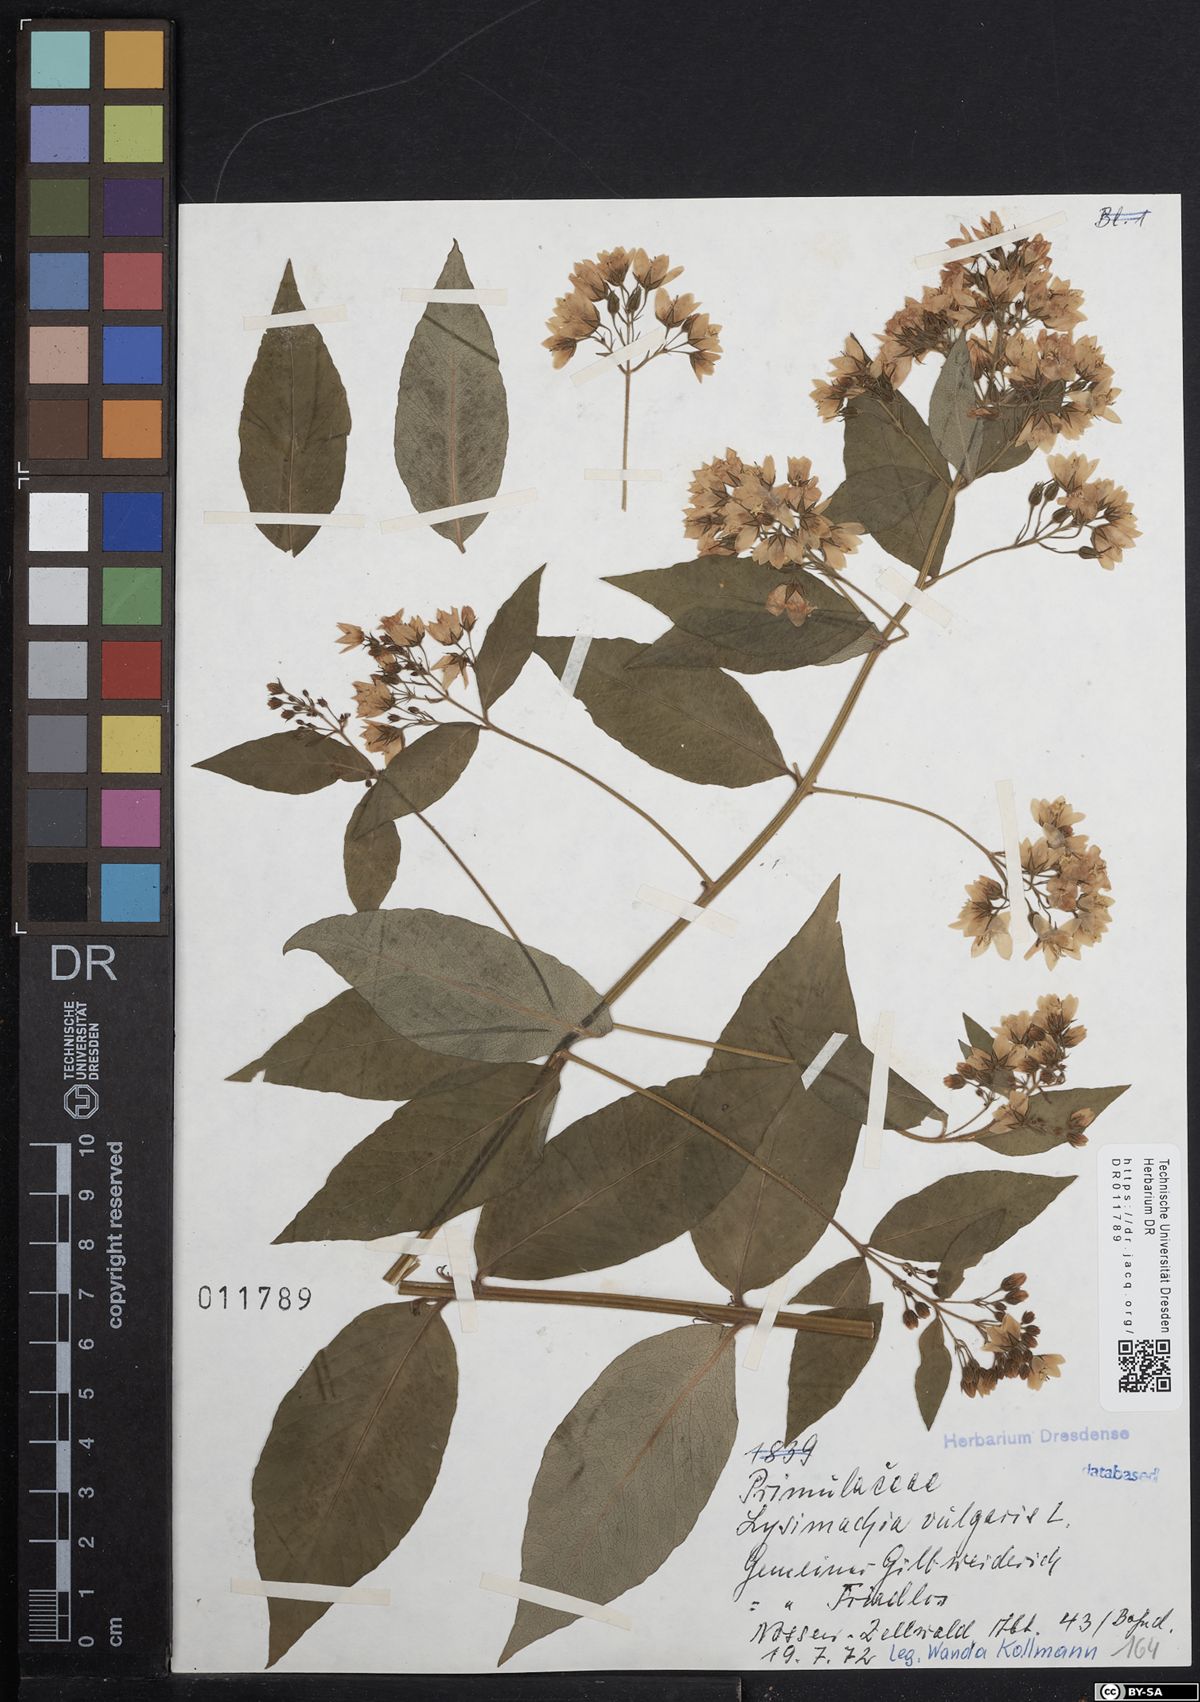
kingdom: Plantae
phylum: Tracheophyta
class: Magnoliopsida
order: Ericales
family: Primulaceae
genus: Lysimachia
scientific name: Lysimachia vulgaris
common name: Yellow loosestrife
